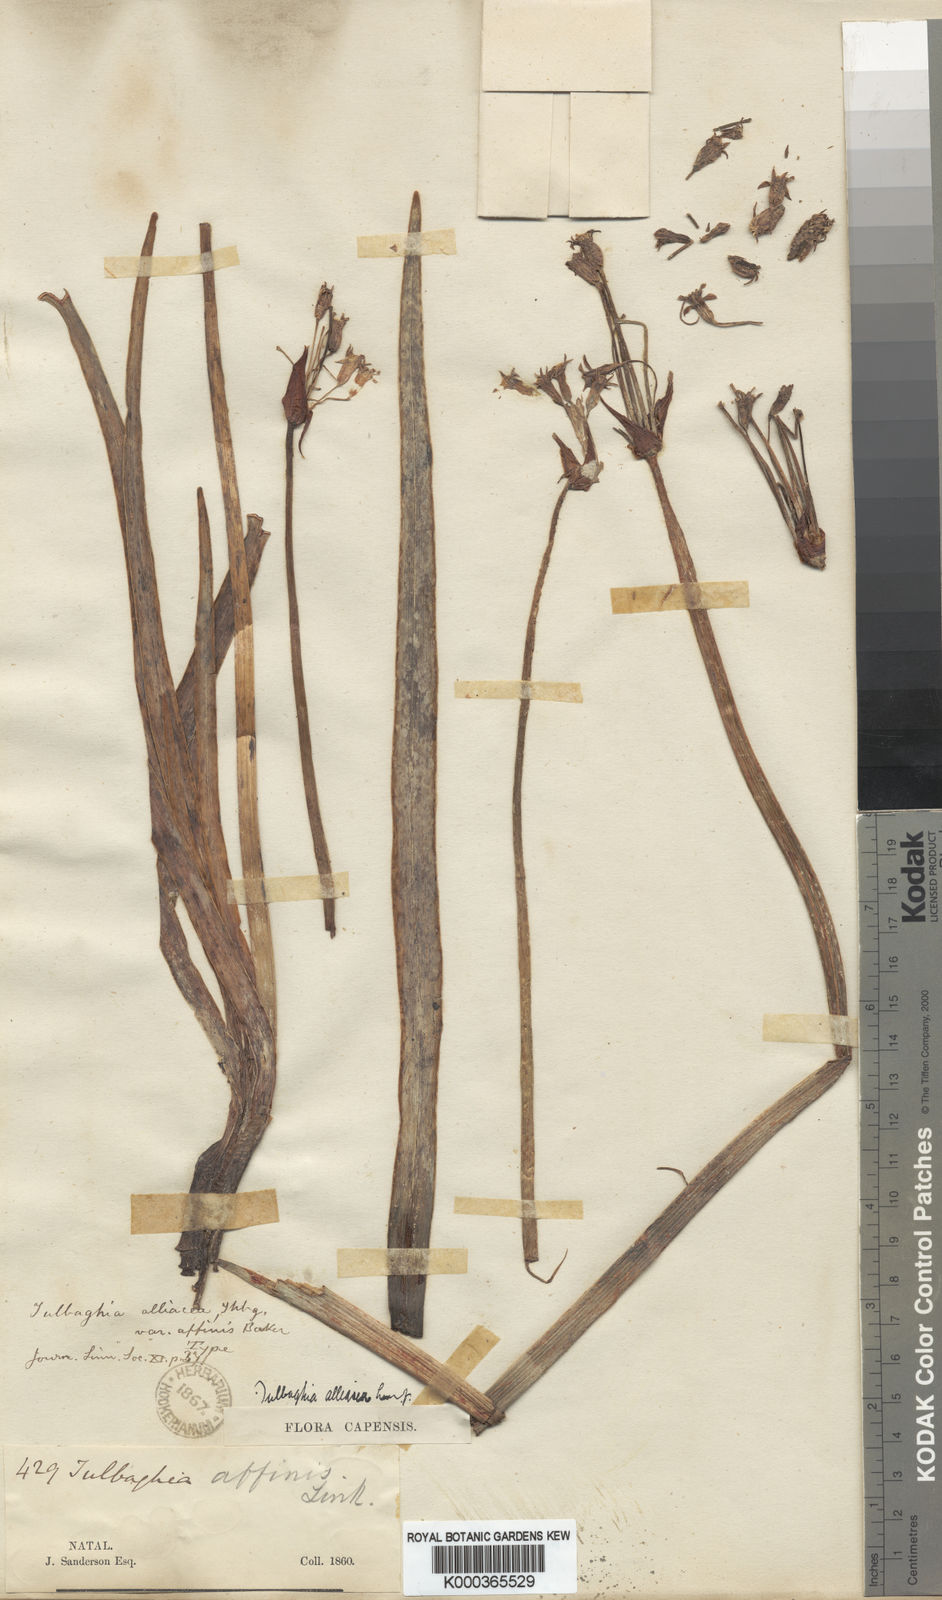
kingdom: Plantae
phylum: Tracheophyta
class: Liliopsida
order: Asparagales
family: Amaryllidaceae
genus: Tulbaghia
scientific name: Tulbaghia alliacea
